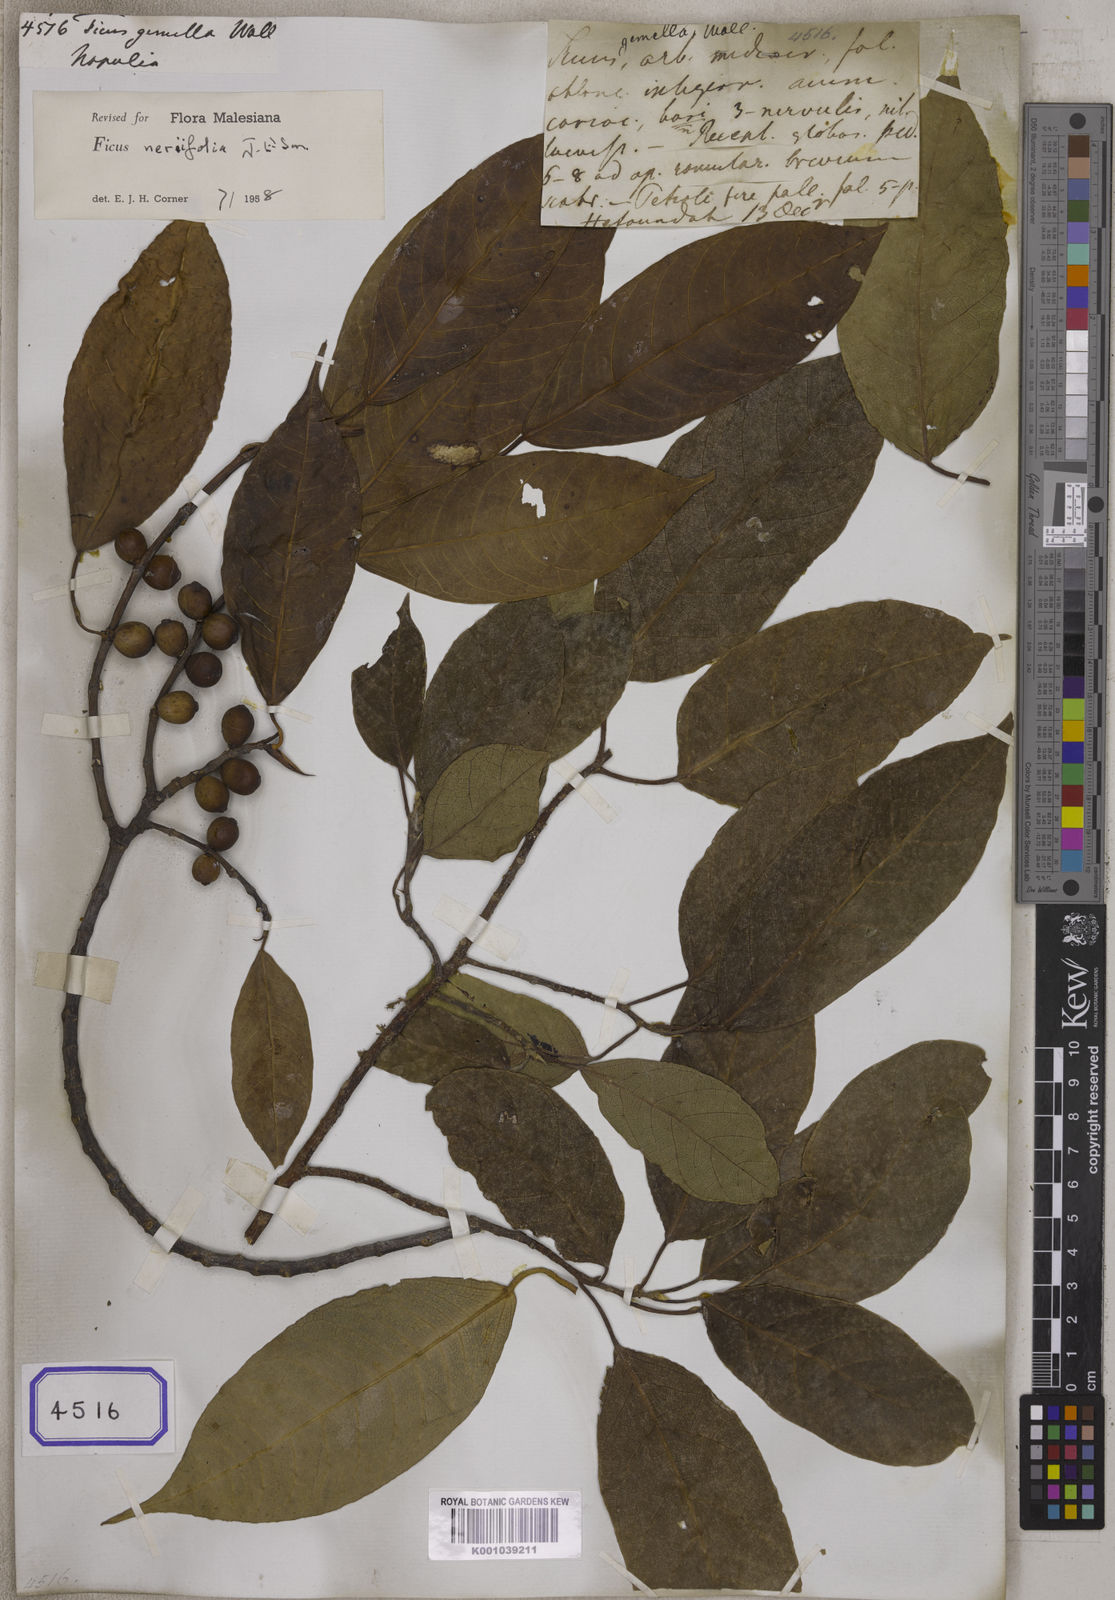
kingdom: Plantae
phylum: Tracheophyta
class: Magnoliopsida
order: Rosales
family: Moraceae
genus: Ficus
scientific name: Ficus
